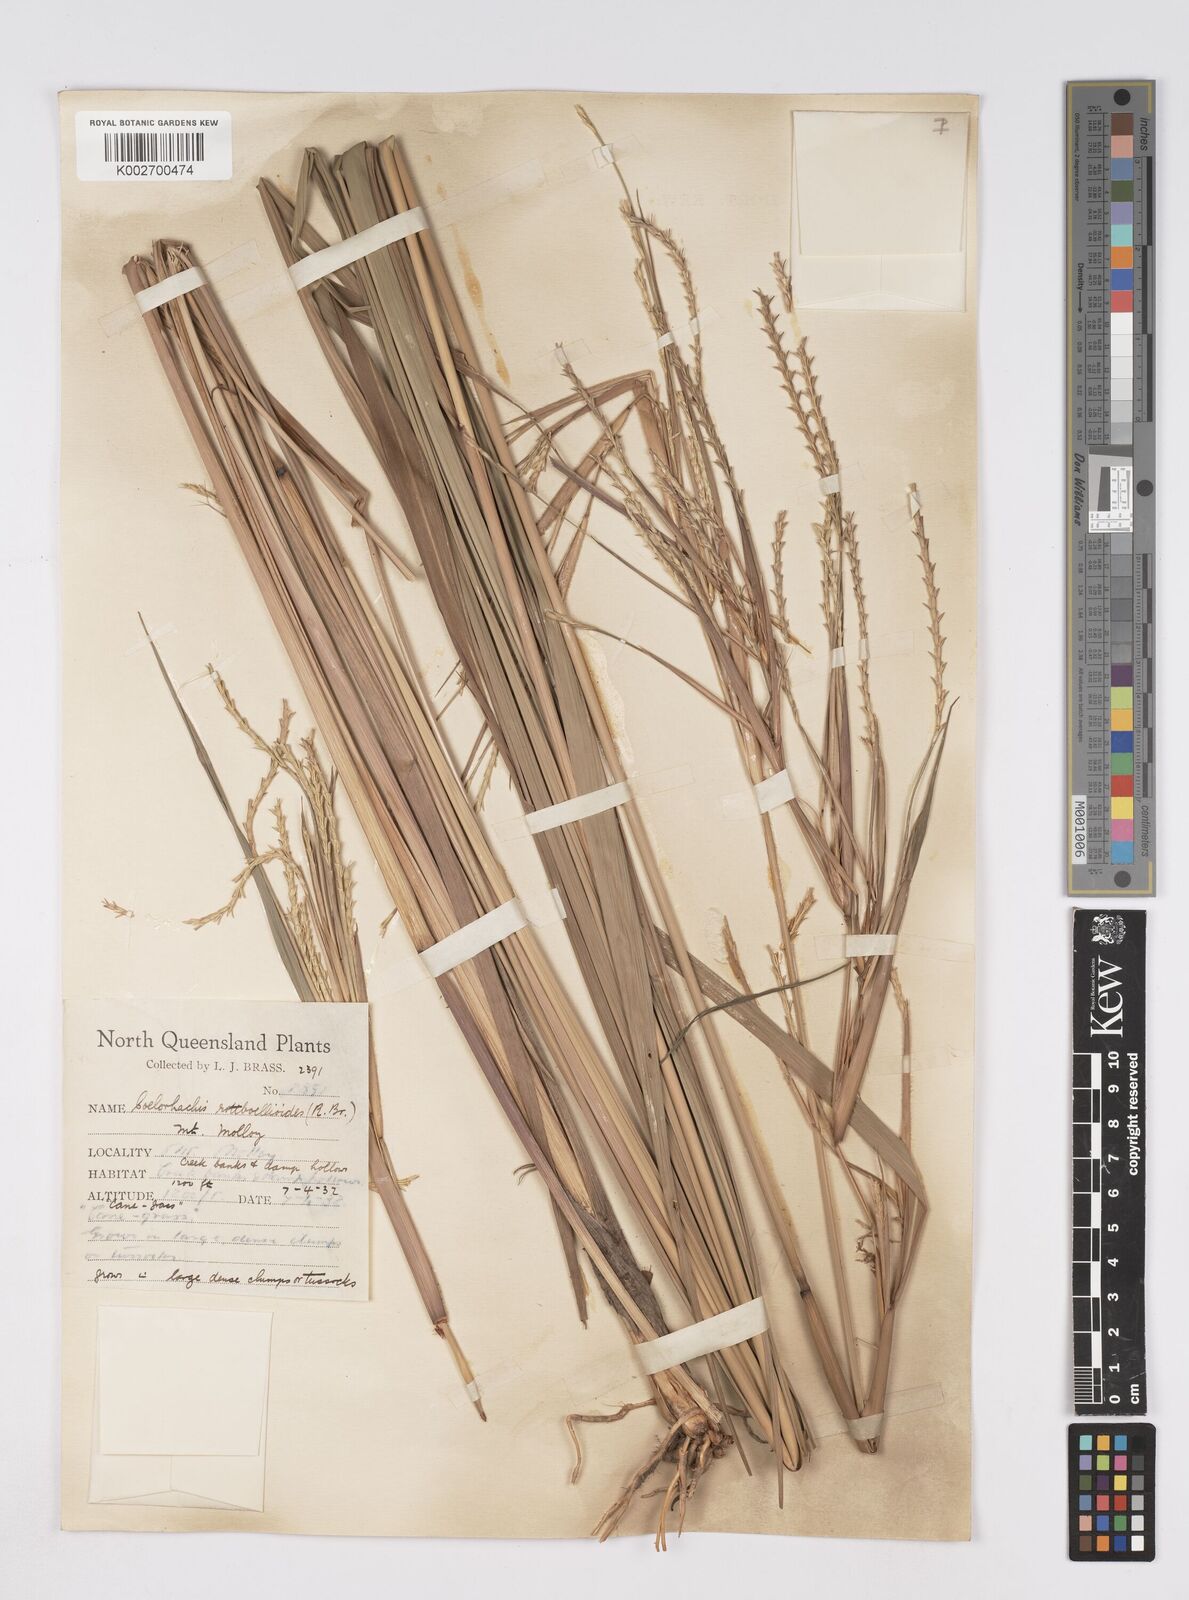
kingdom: Plantae
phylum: Tracheophyta
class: Liliopsida
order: Poales
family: Poaceae
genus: Rottboellia
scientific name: Rottboellia rottboellioides
